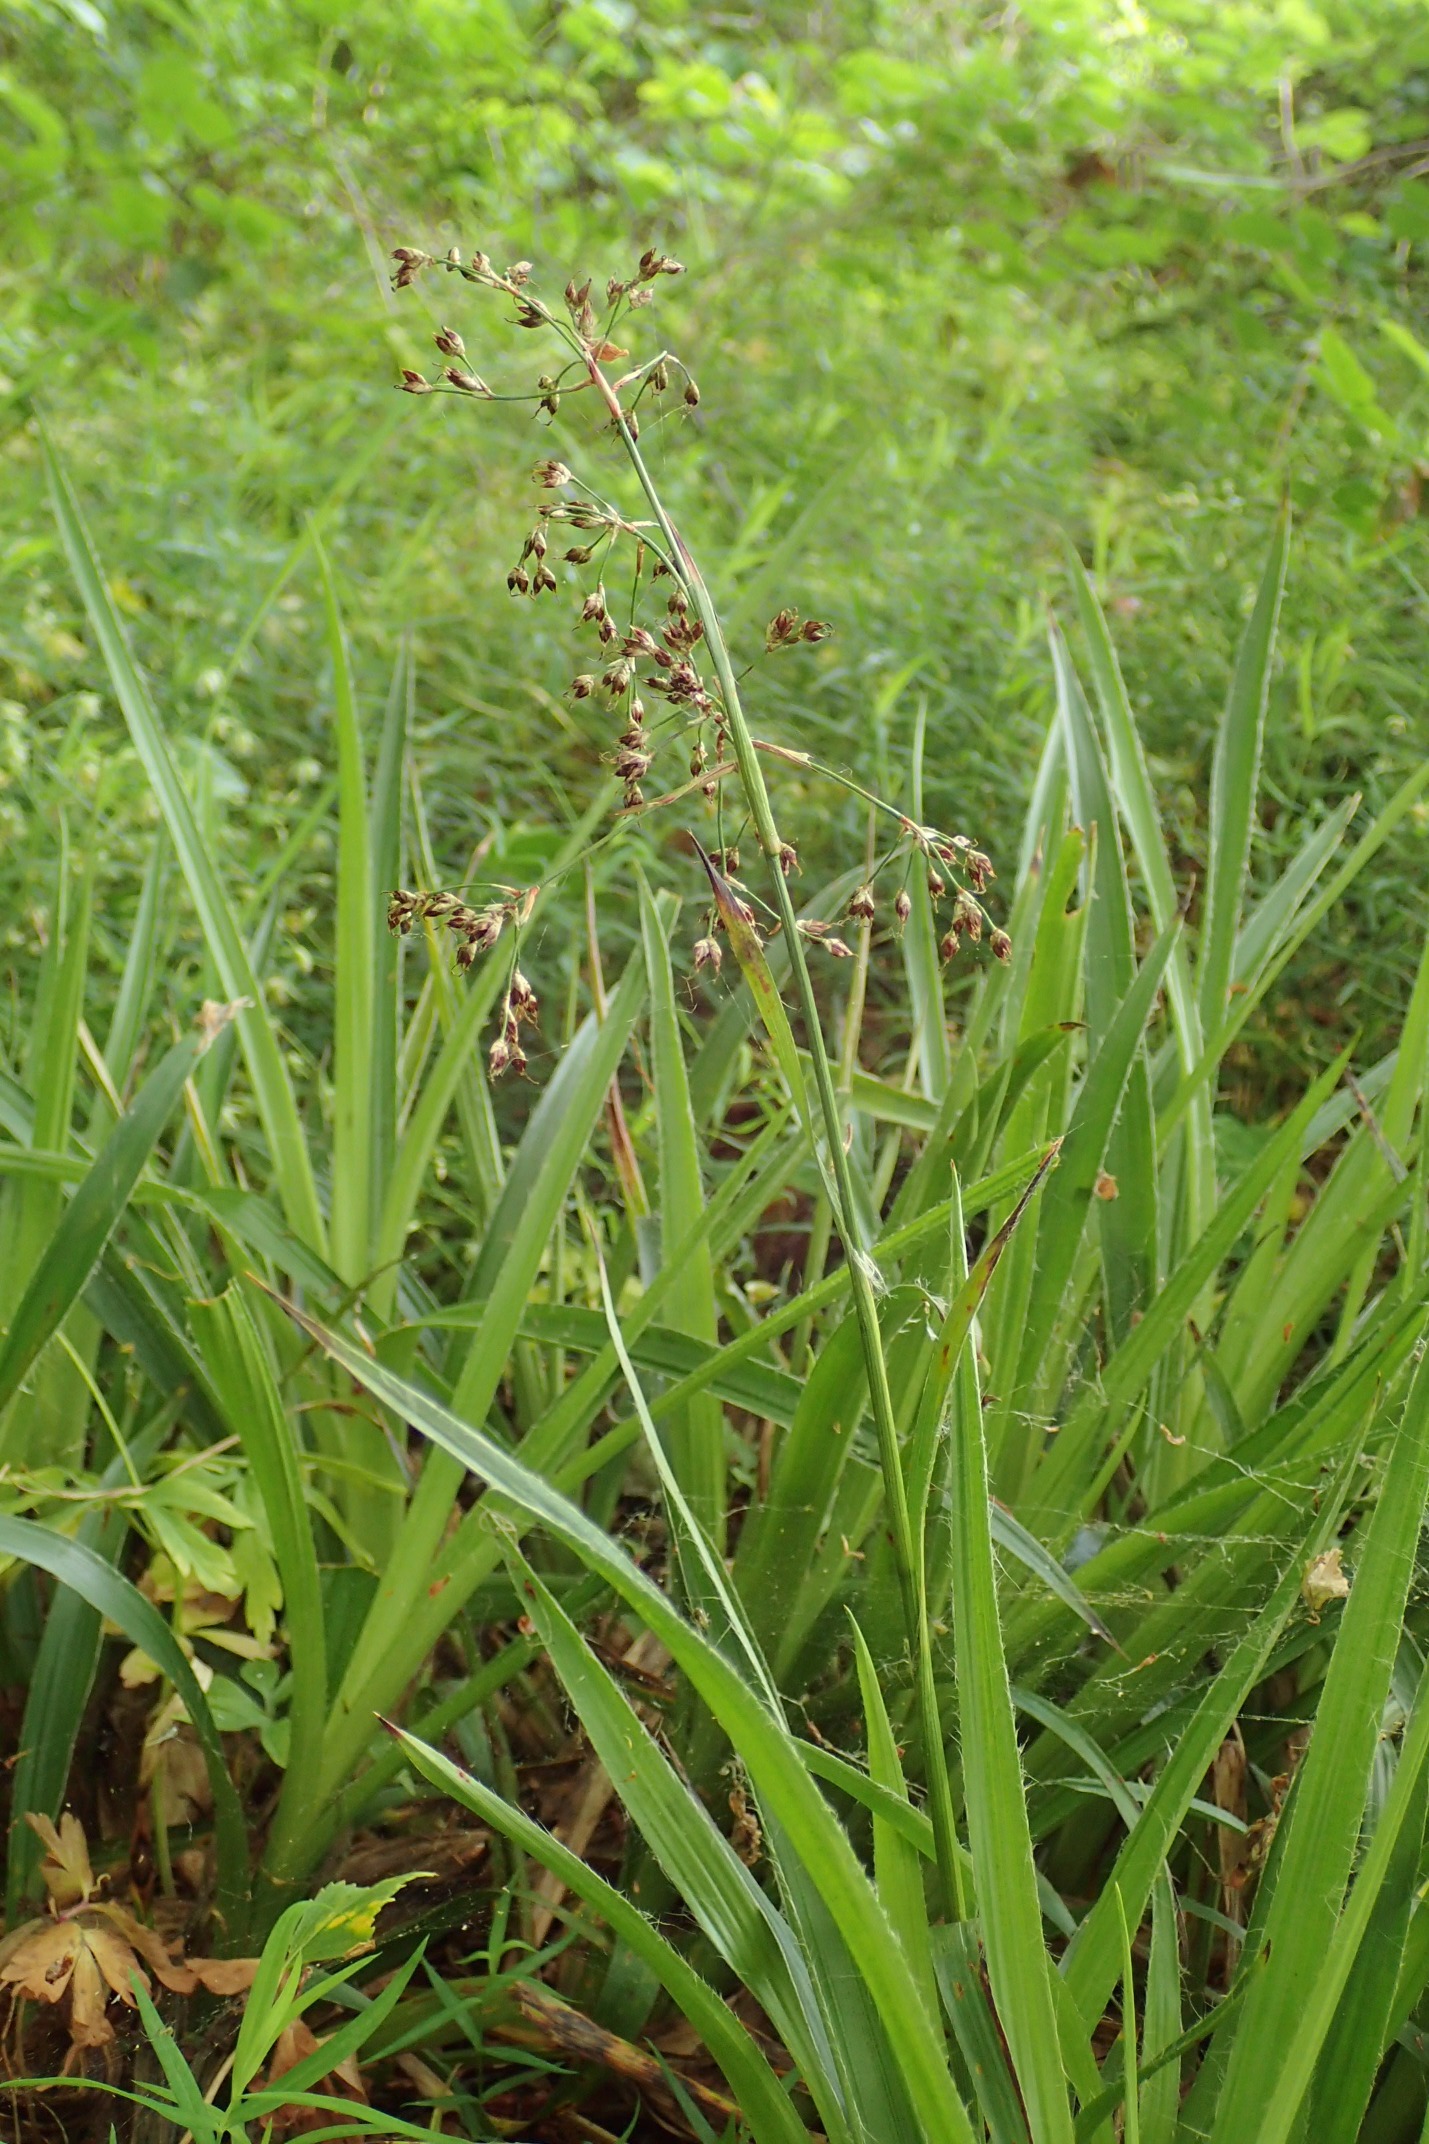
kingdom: Plantae
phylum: Tracheophyta
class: Liliopsida
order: Poales
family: Juncaceae
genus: Luzula
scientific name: Luzula sylvatica
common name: Stor frytle
